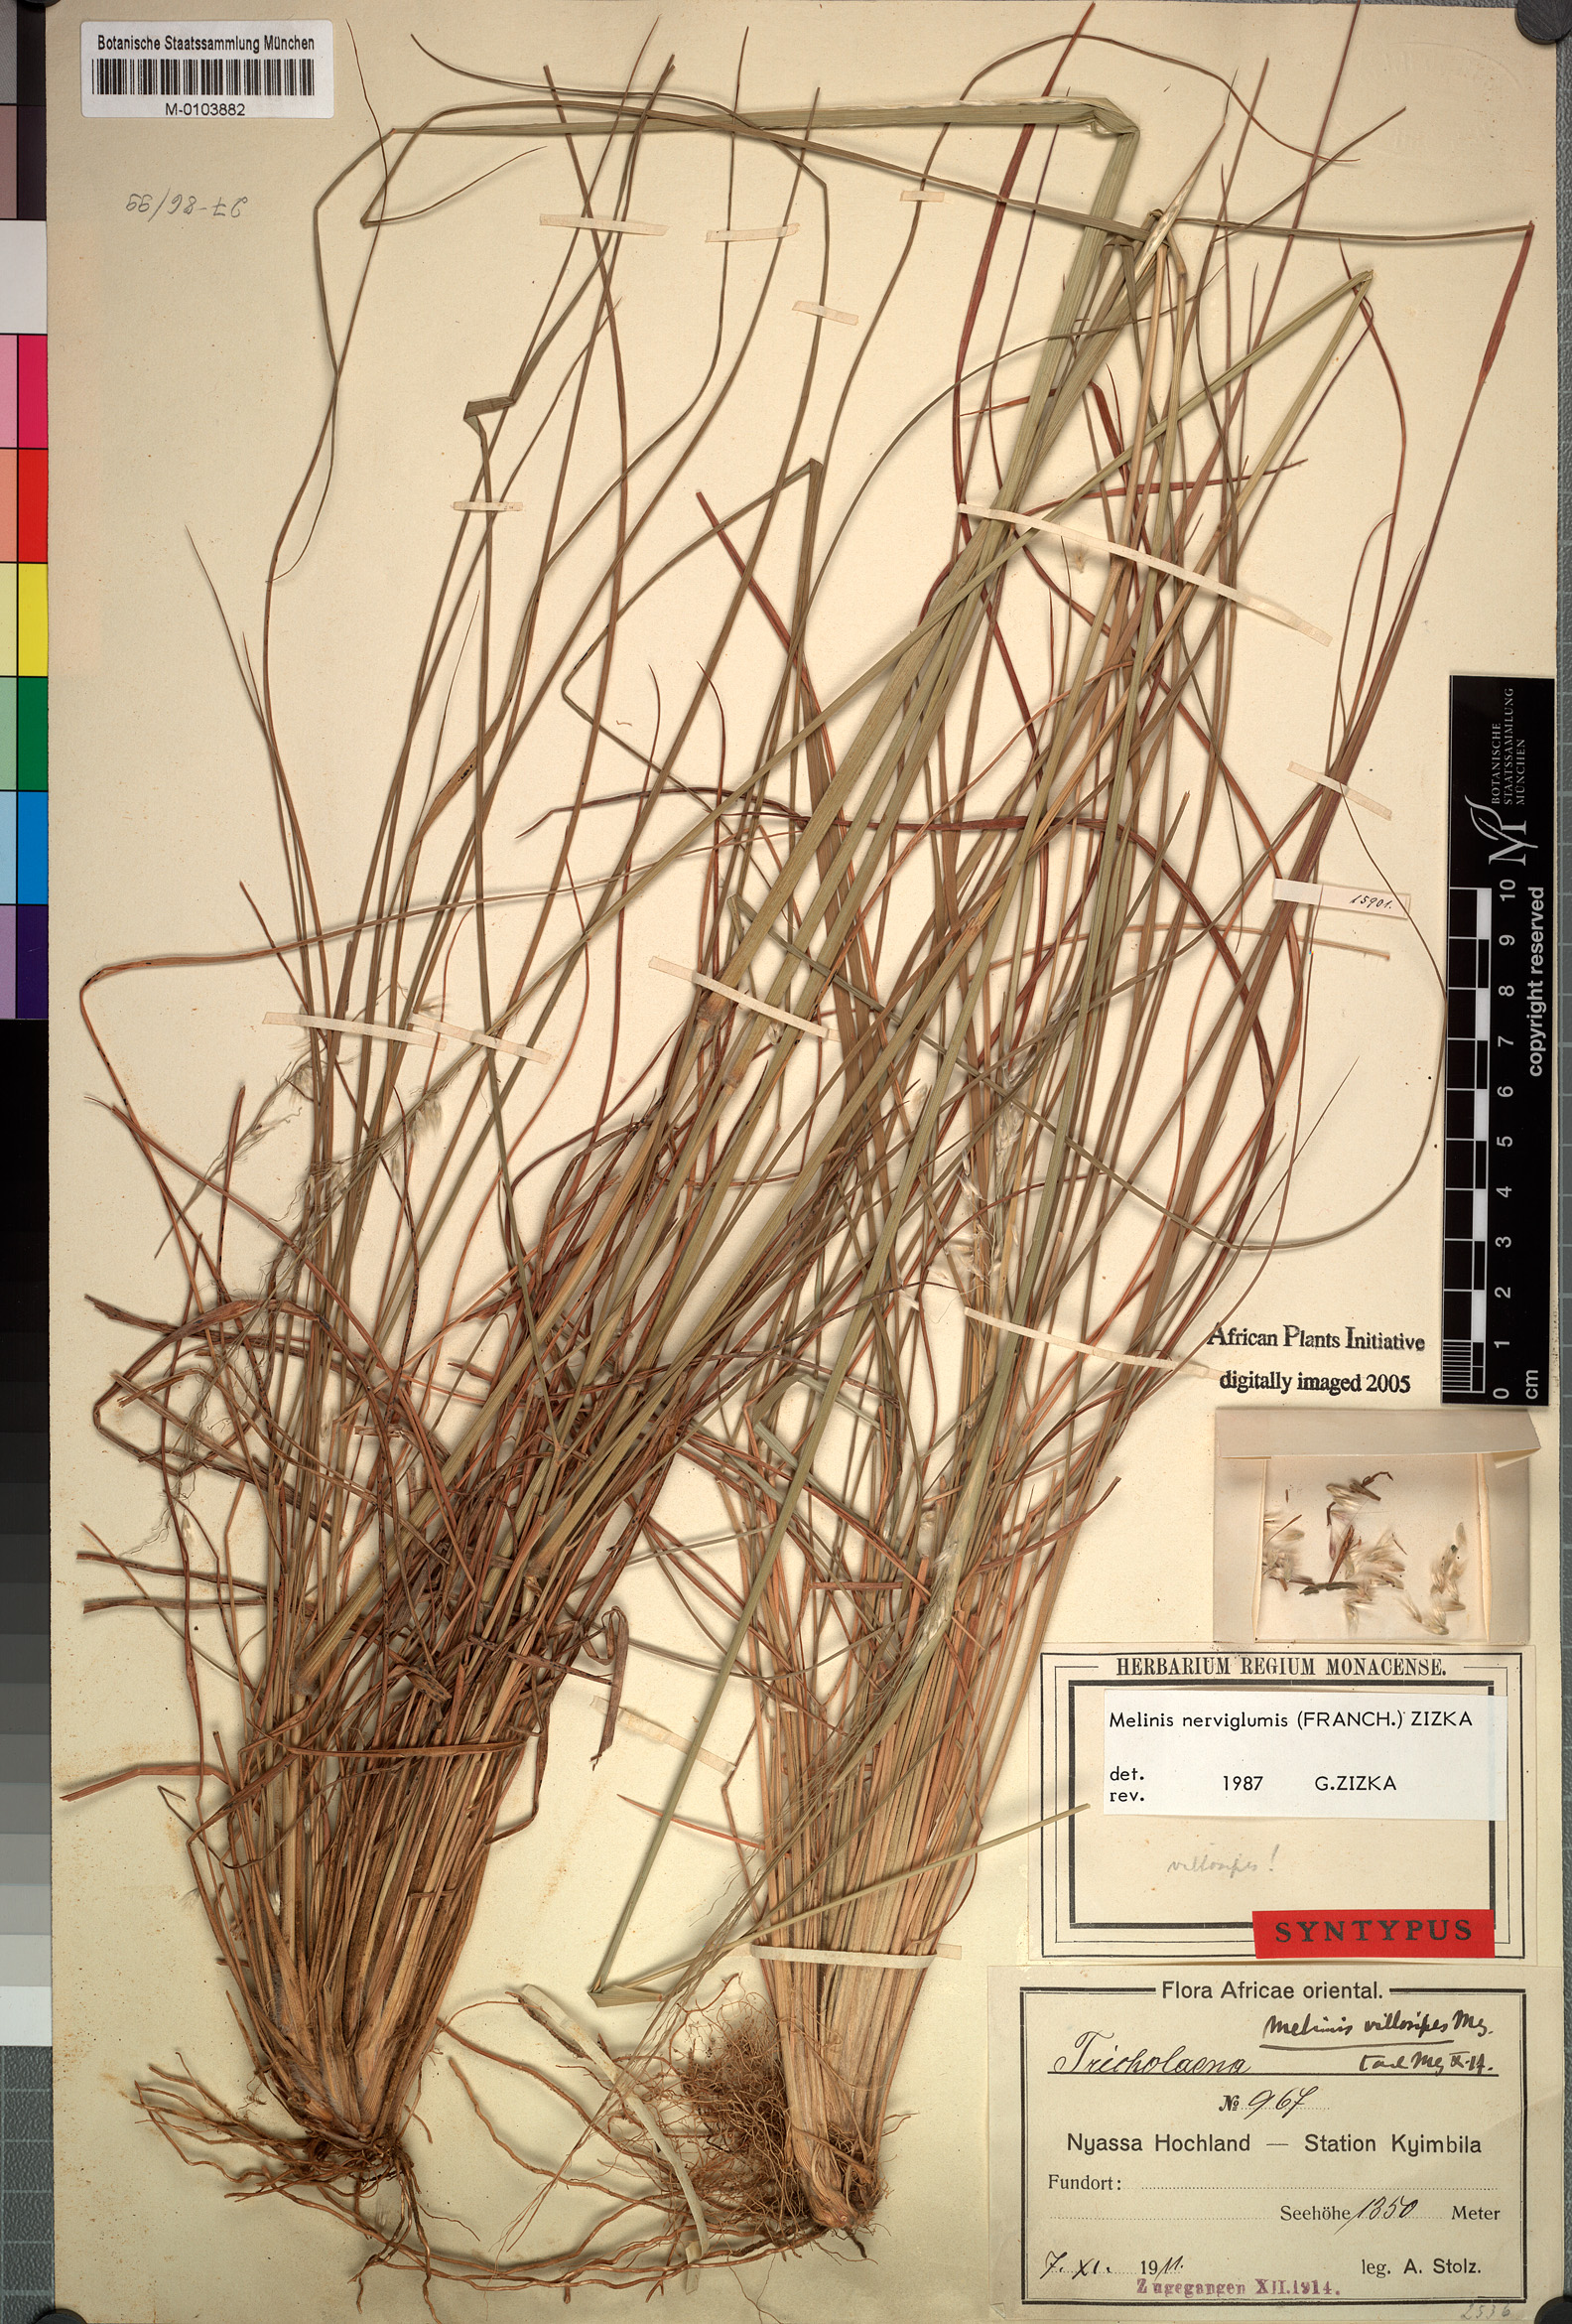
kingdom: Plantae
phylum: Tracheophyta
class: Liliopsida
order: Poales
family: Poaceae
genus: Melinis
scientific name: Melinis nerviglumis
